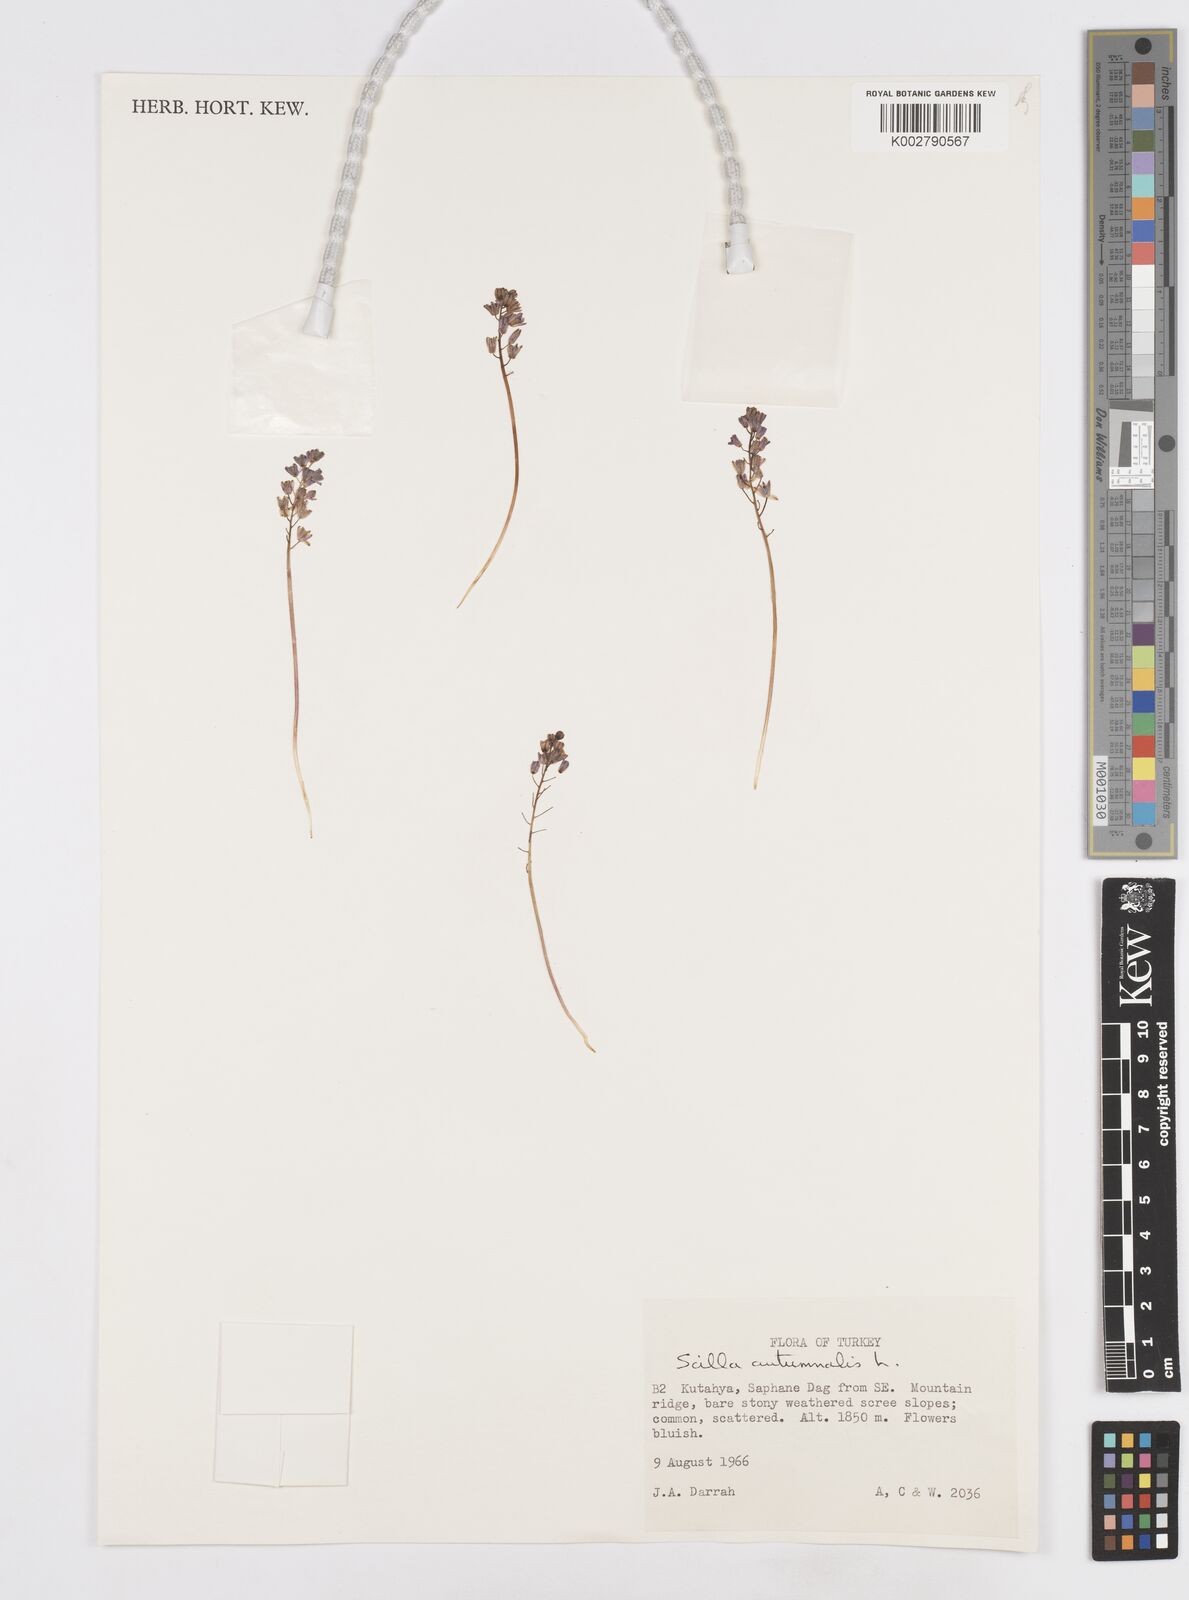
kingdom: Plantae
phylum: Tracheophyta
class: Liliopsida
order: Asparagales
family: Asparagaceae
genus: Prospero
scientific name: Prospero autumnale
